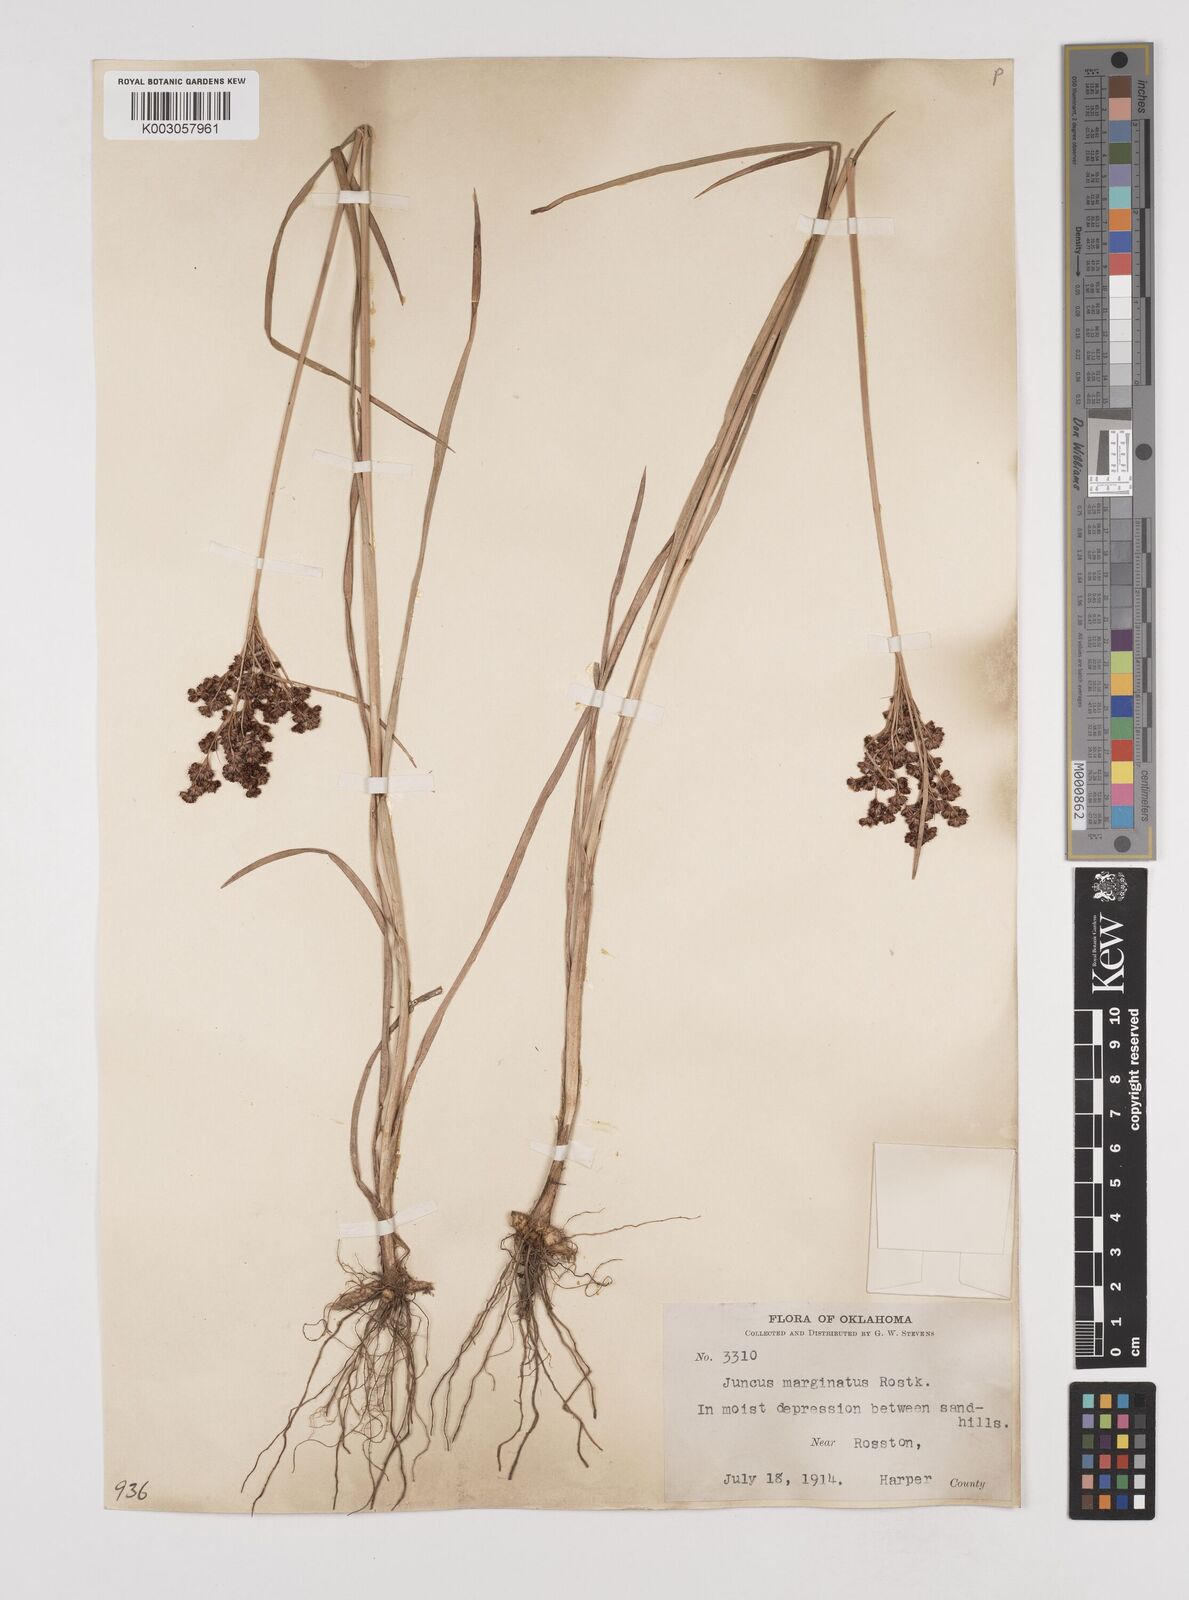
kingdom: Plantae
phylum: Tracheophyta
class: Liliopsida
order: Poales
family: Juncaceae
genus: Juncus
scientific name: Juncus marginatus
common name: Grass-leaf rush
